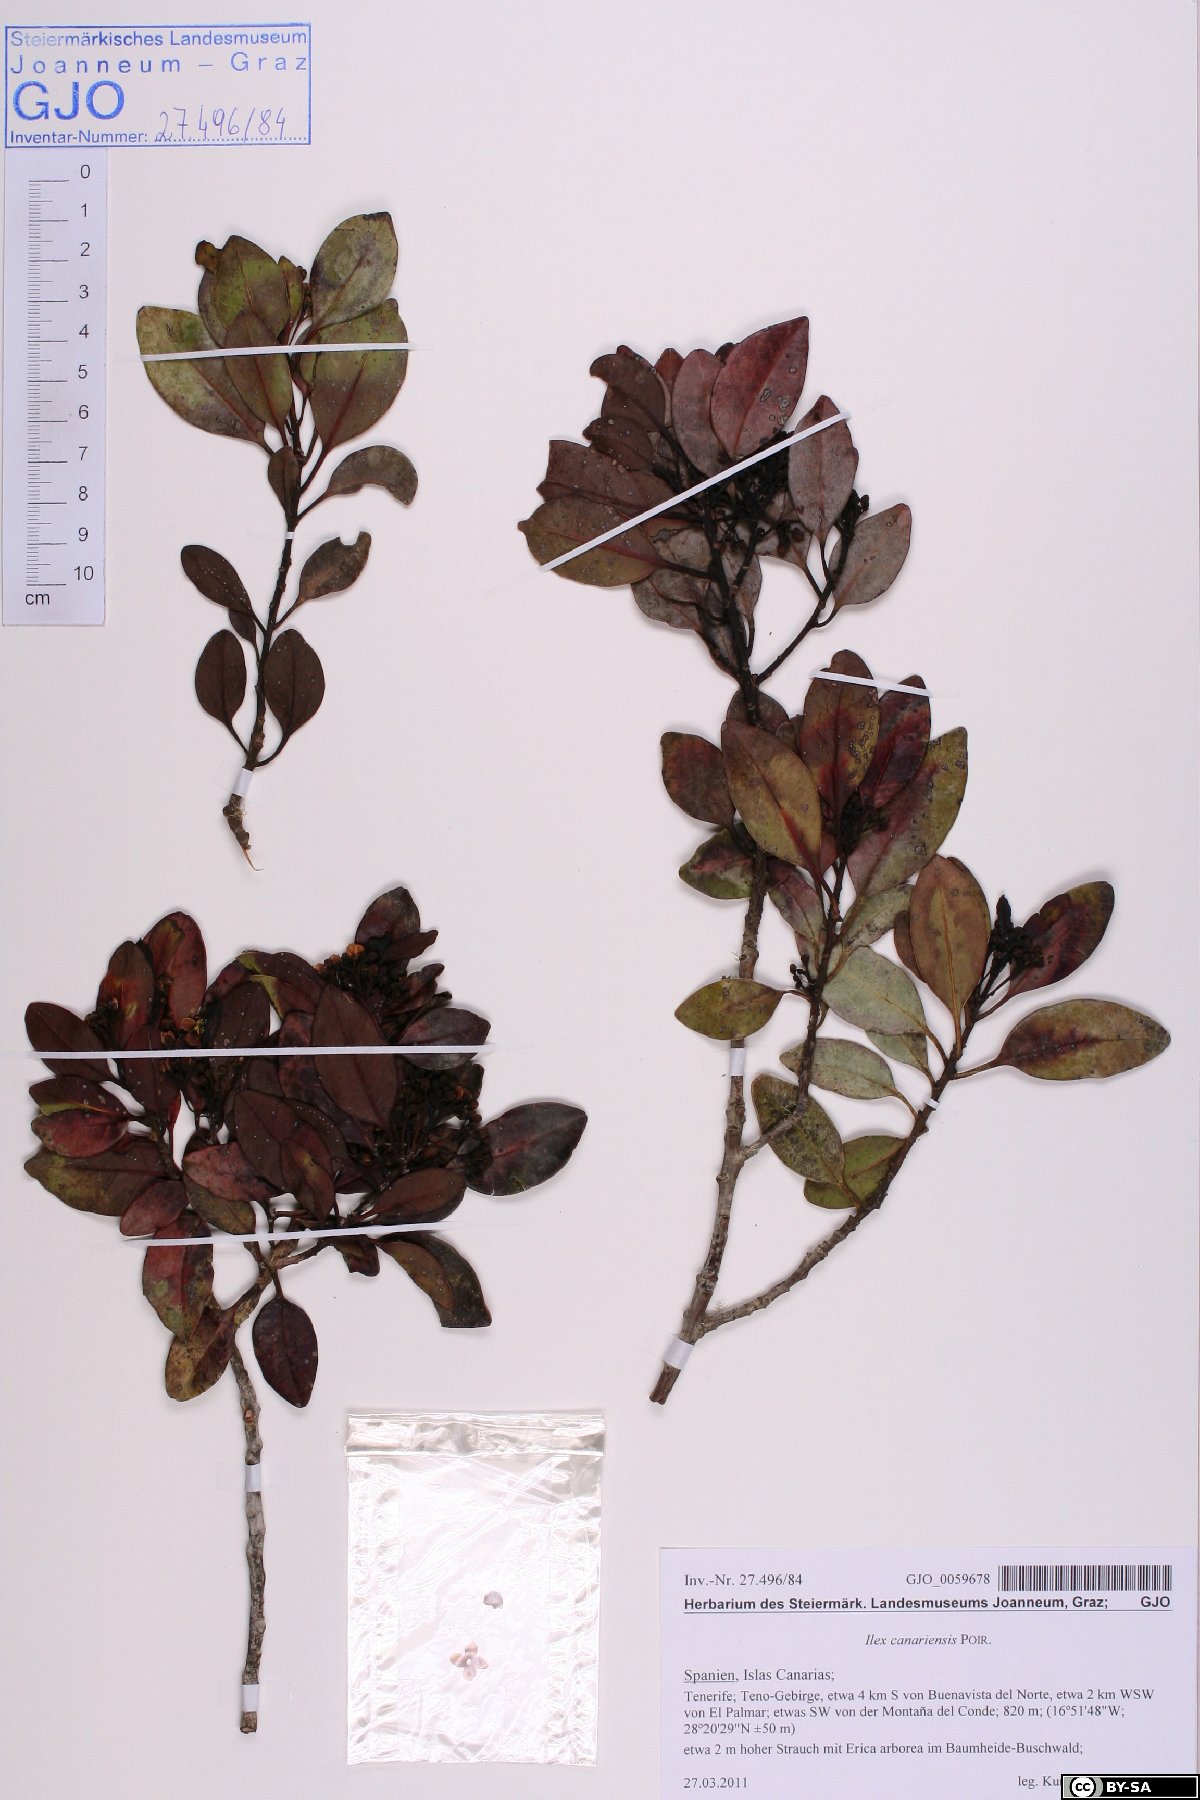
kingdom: Plantae
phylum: Tracheophyta
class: Magnoliopsida
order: Aquifoliales
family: Aquifoliaceae
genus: Ilex
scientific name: Ilex canariensis
